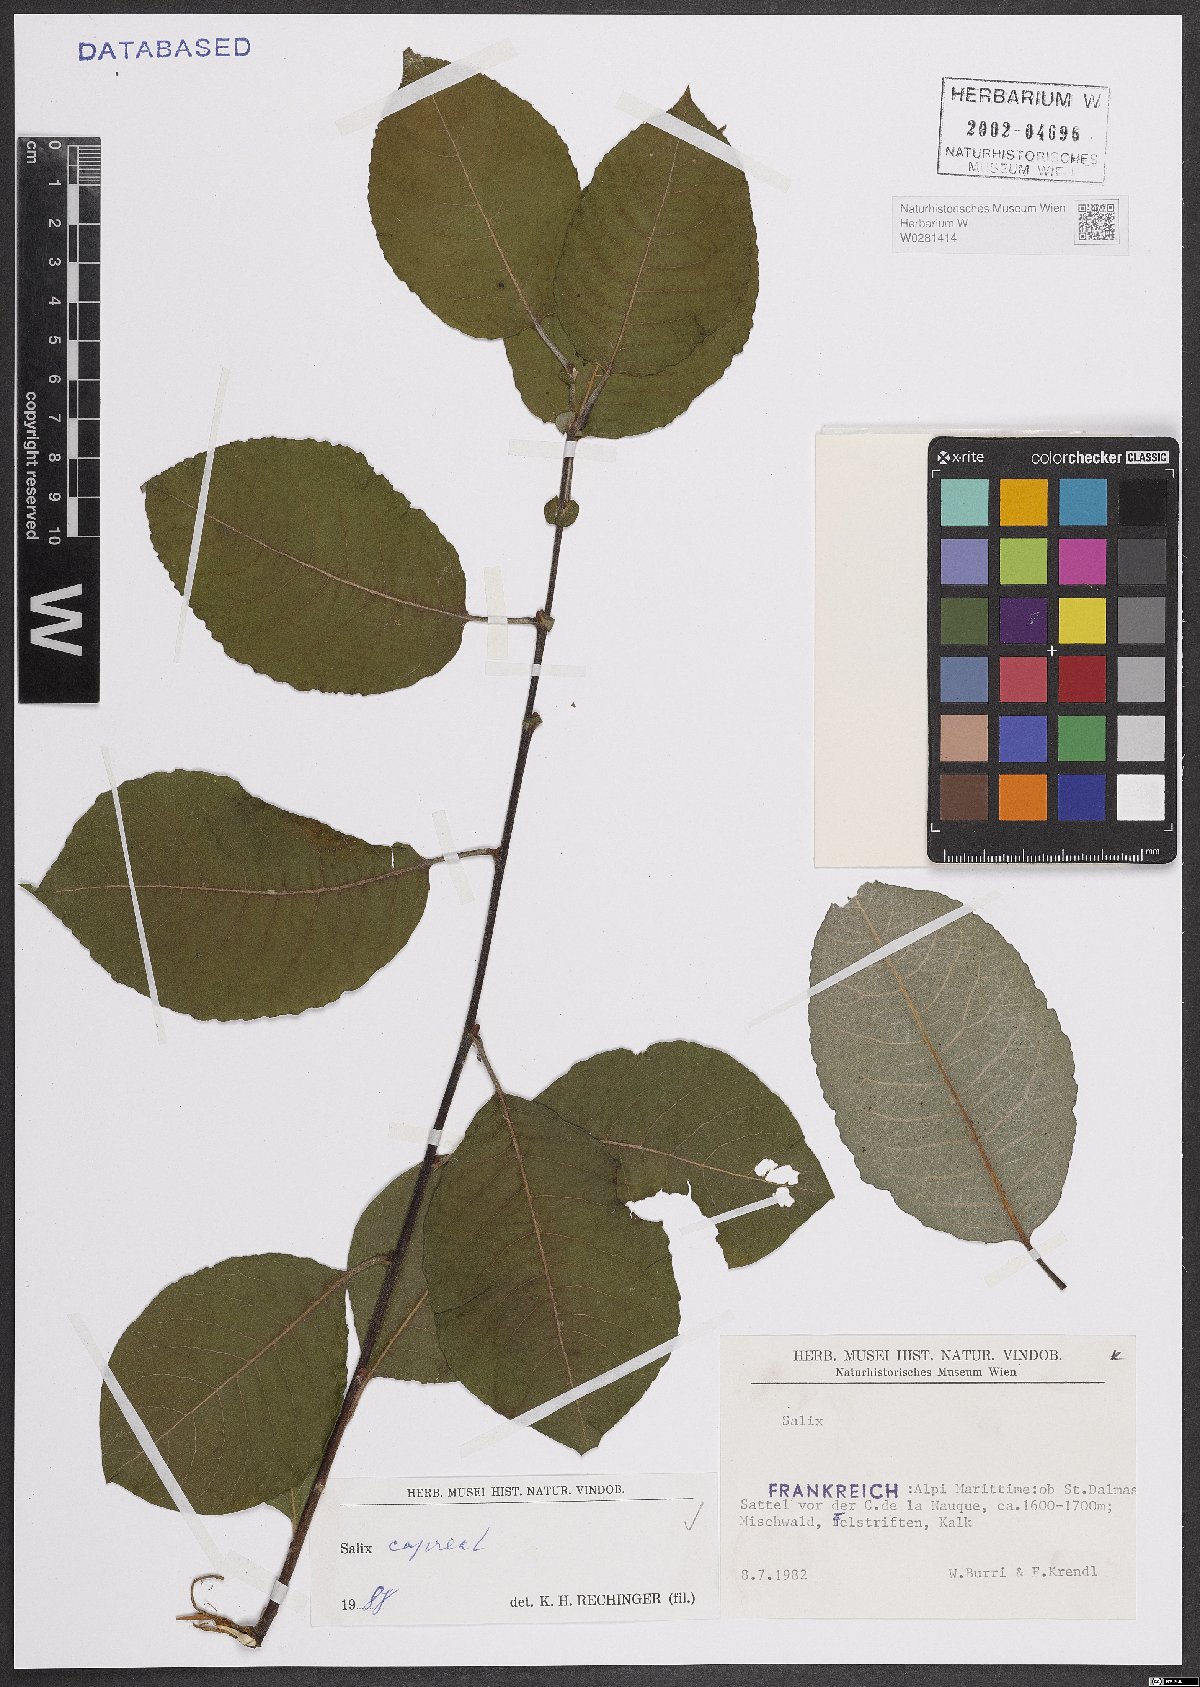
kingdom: Plantae
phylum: Tracheophyta
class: Magnoliopsida
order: Malpighiales
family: Salicaceae
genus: Salix
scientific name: Salix caprea
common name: Goat willow
